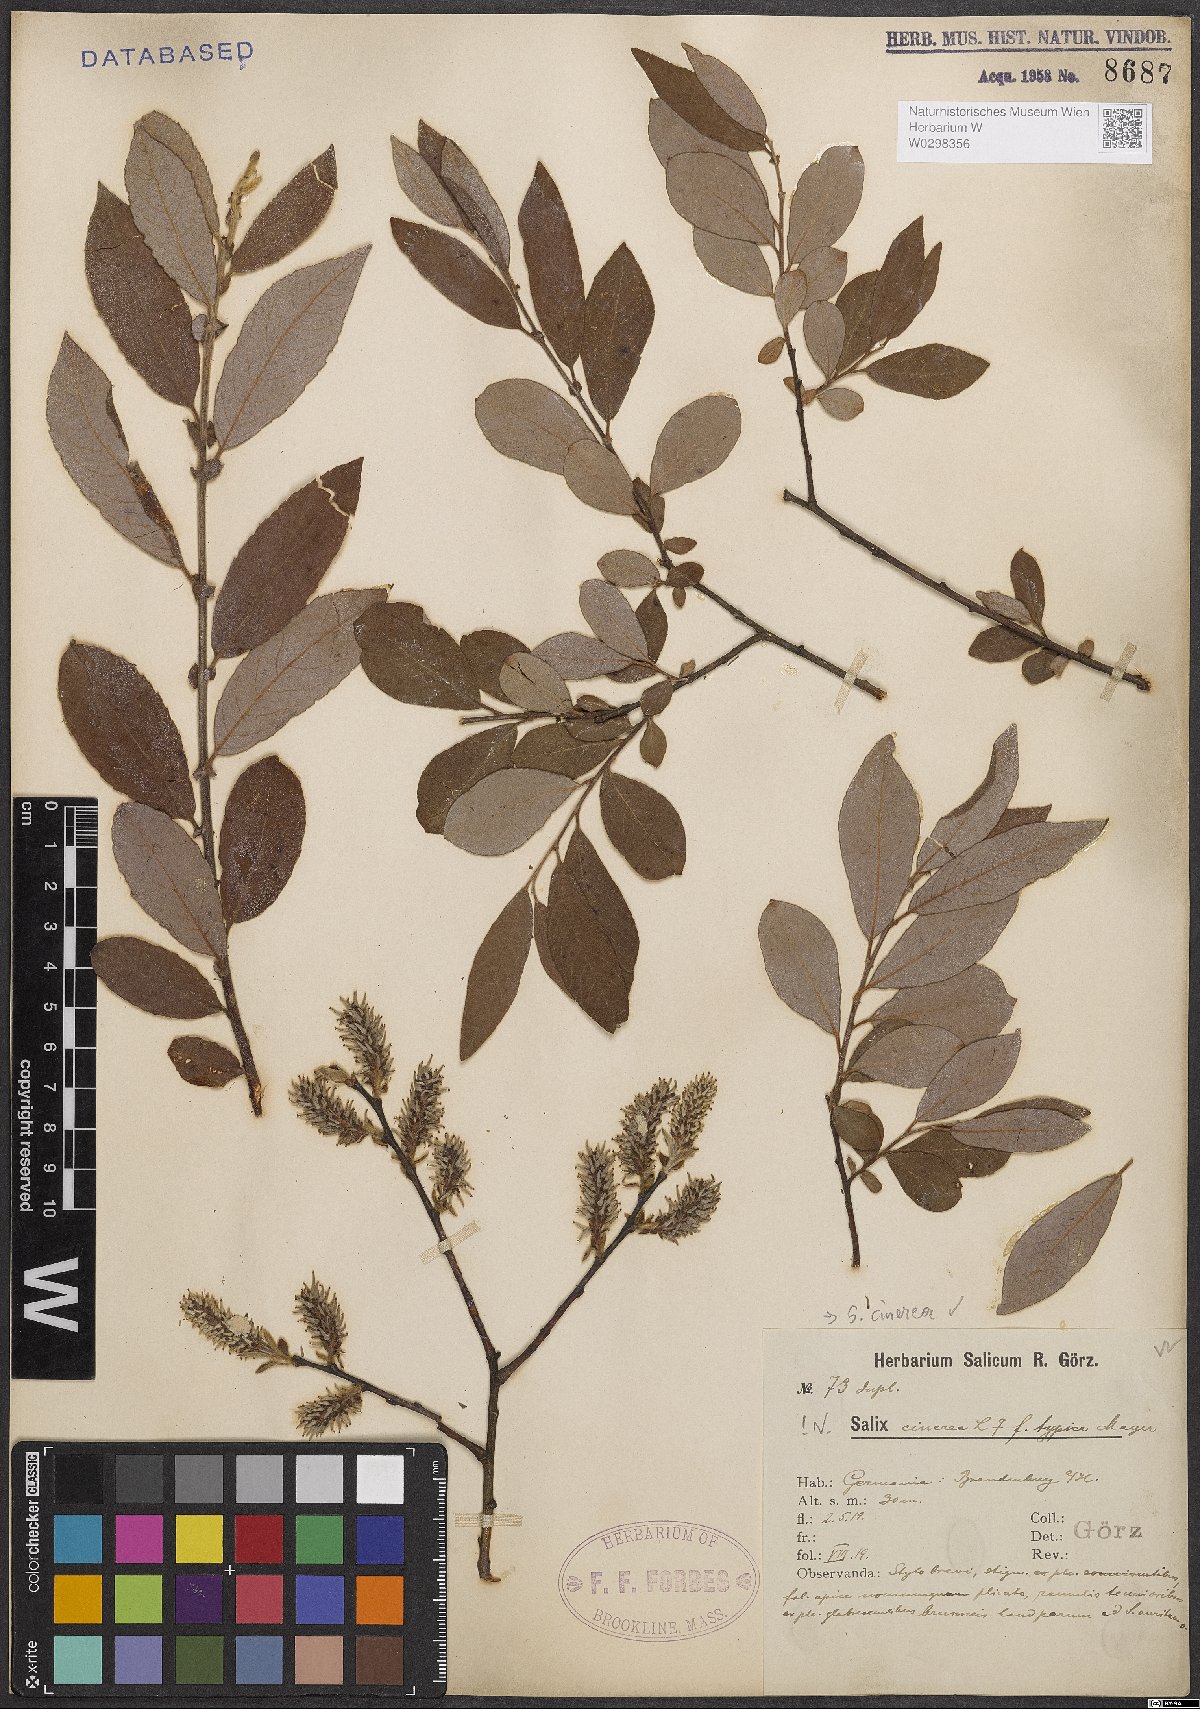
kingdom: Plantae
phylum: Tracheophyta
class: Magnoliopsida
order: Malpighiales
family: Salicaceae
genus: Salix
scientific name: Salix cinerea
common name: Common sallow
